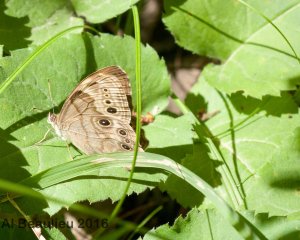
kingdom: Animalia
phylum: Arthropoda
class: Insecta
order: Lepidoptera
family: Nymphalidae
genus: Lethe
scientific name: Lethe anthedon
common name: Northern Pearly-Eye
